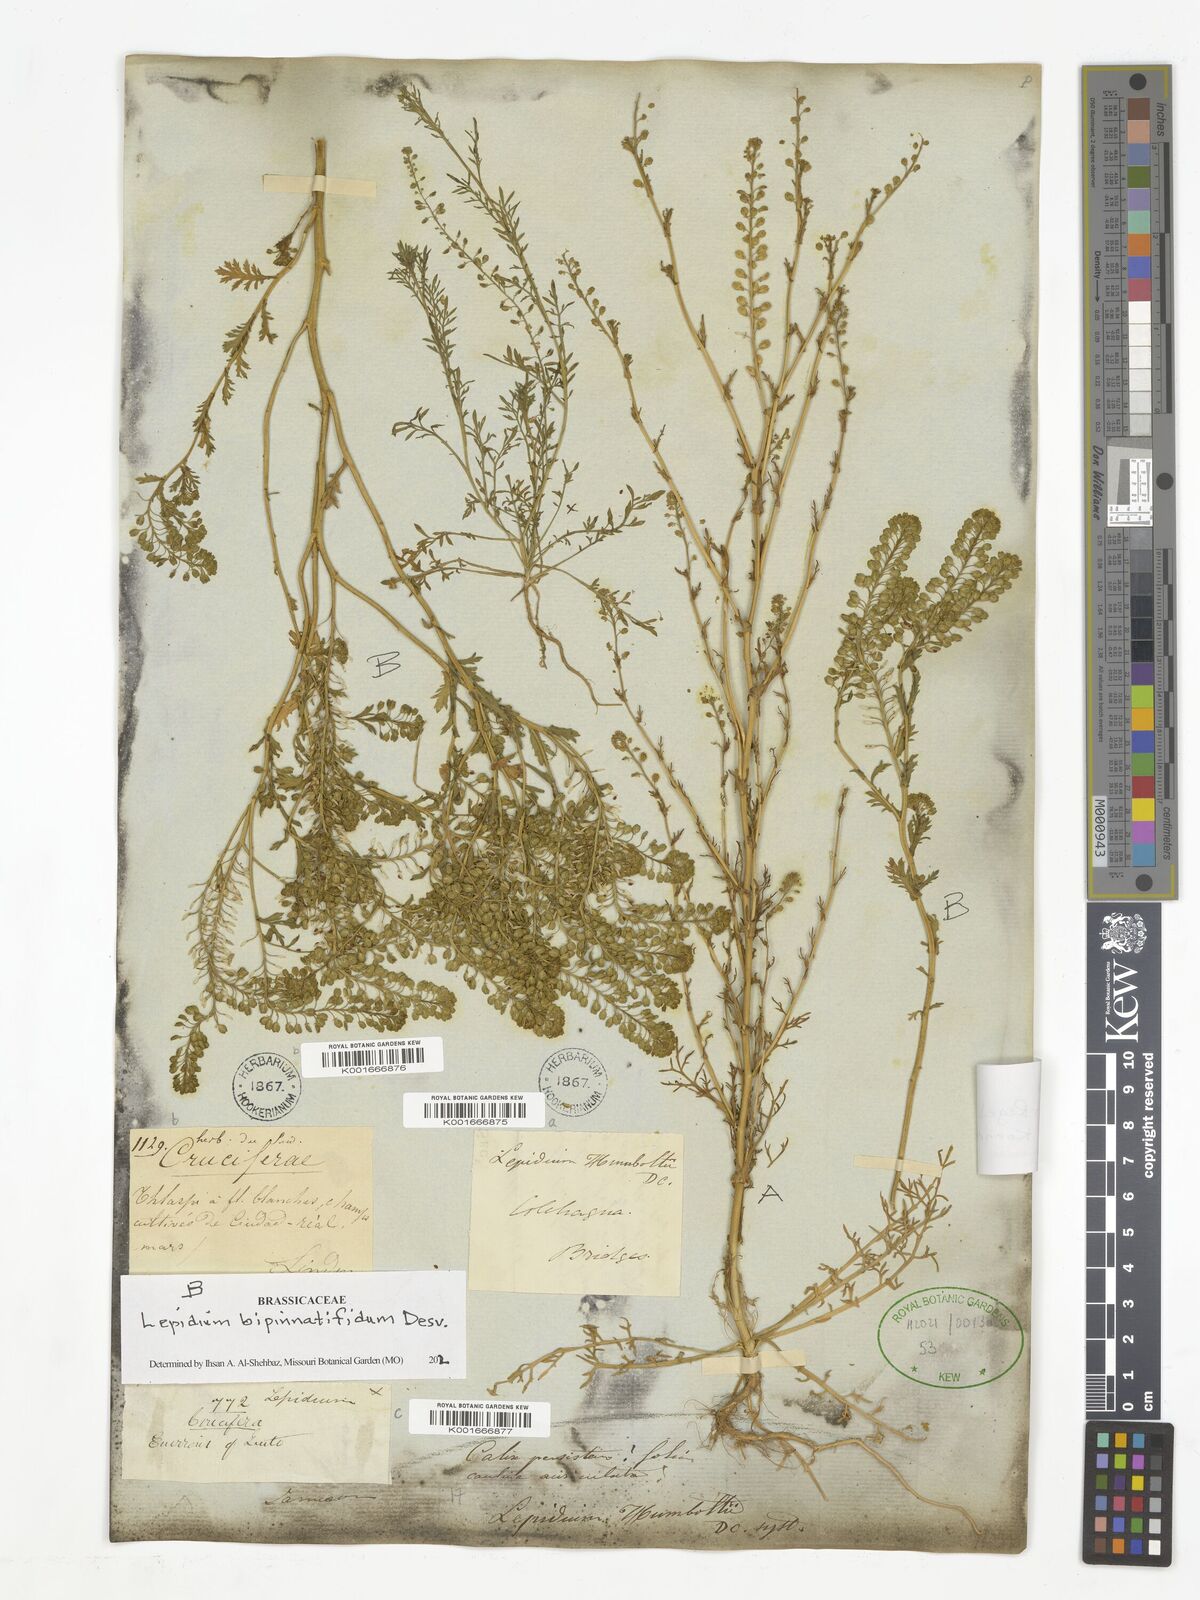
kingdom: Plantae
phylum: Tracheophyta
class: Magnoliopsida
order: Brassicales
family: Brassicaceae
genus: Lepidium
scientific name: Lepidium auriculatum
